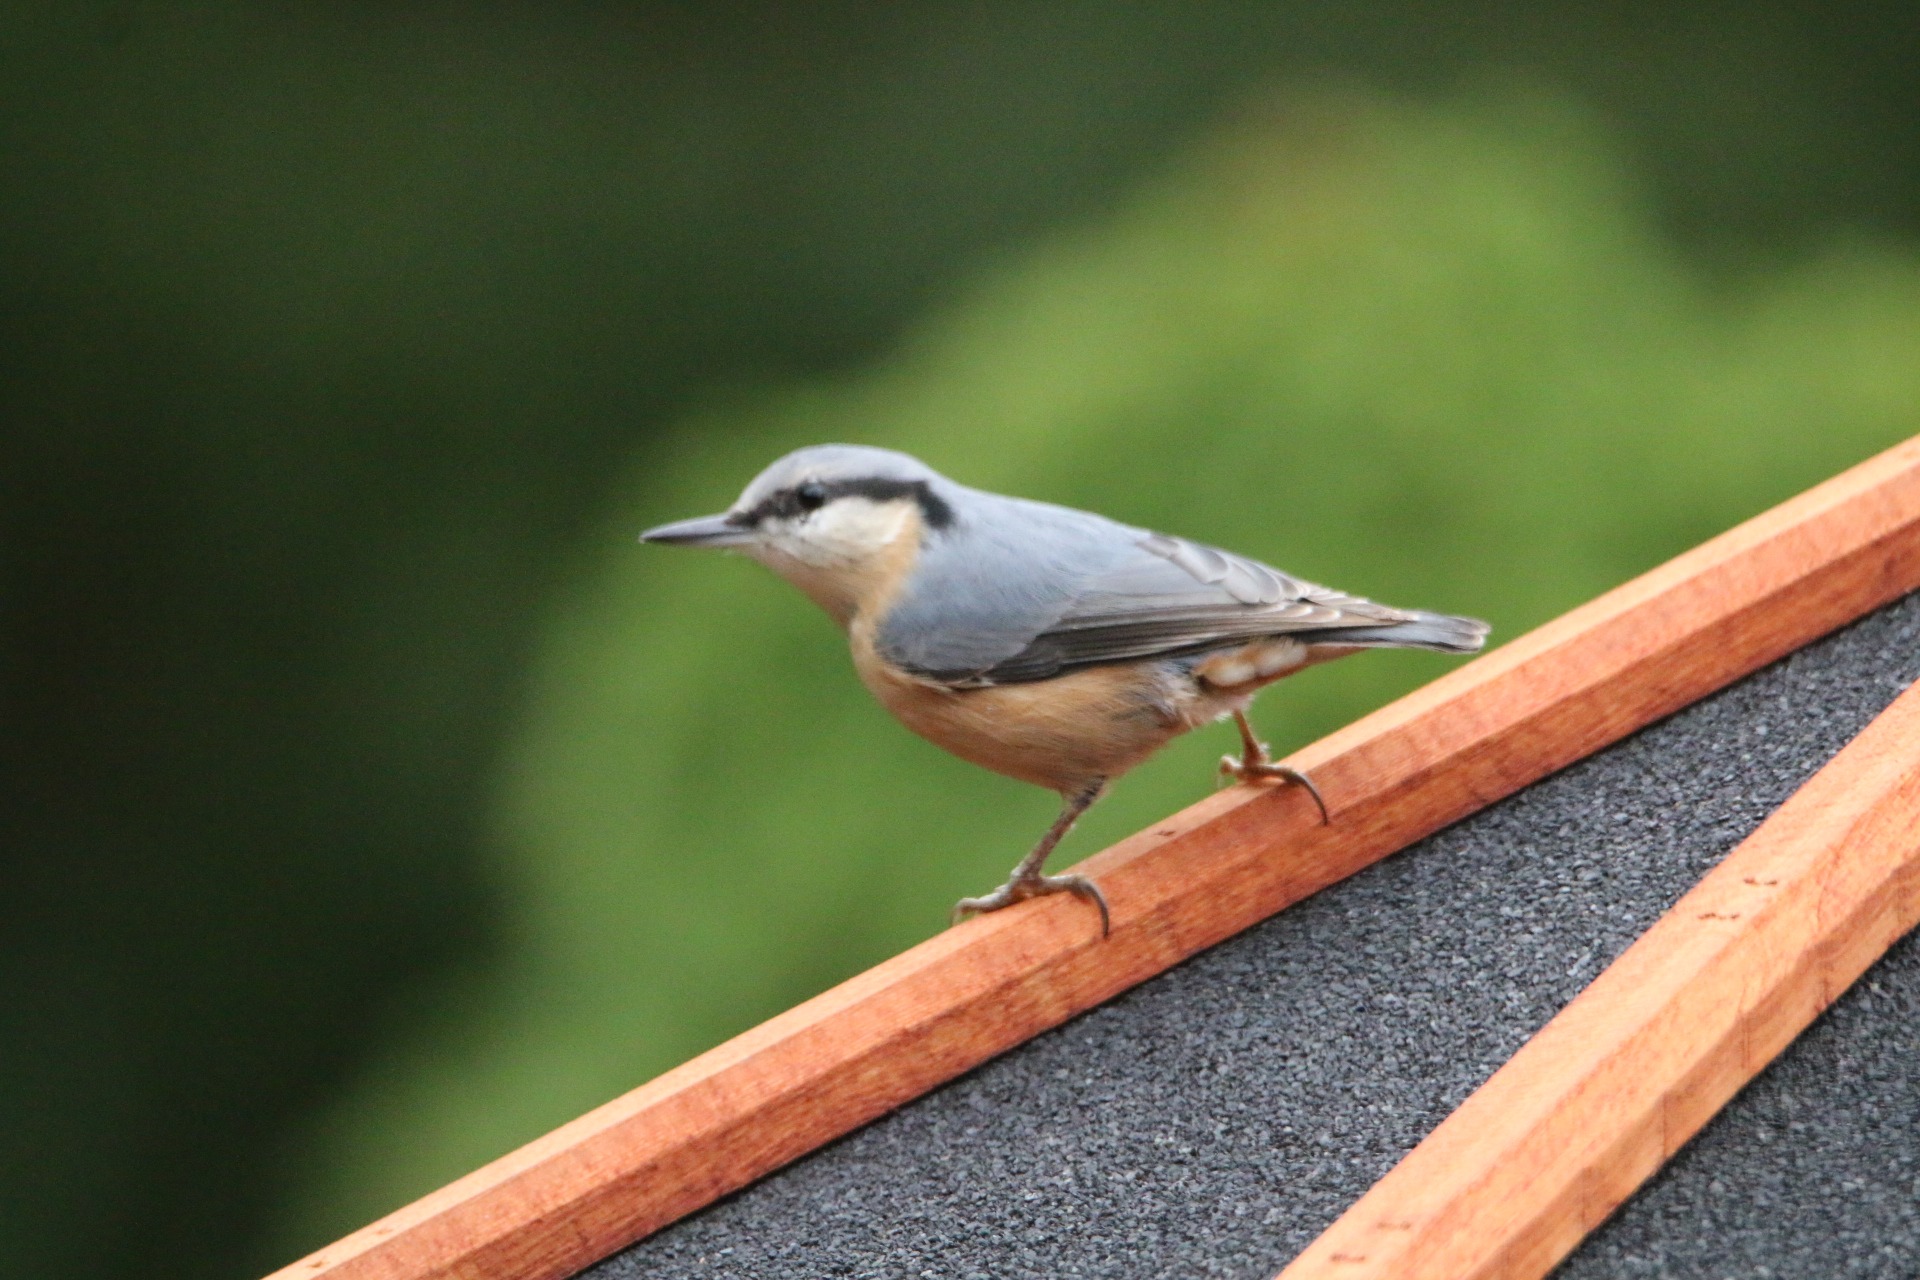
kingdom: Animalia
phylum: Chordata
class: Aves
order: Passeriformes
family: Sittidae
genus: Sitta
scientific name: Sitta europaea
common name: Spætmejse
